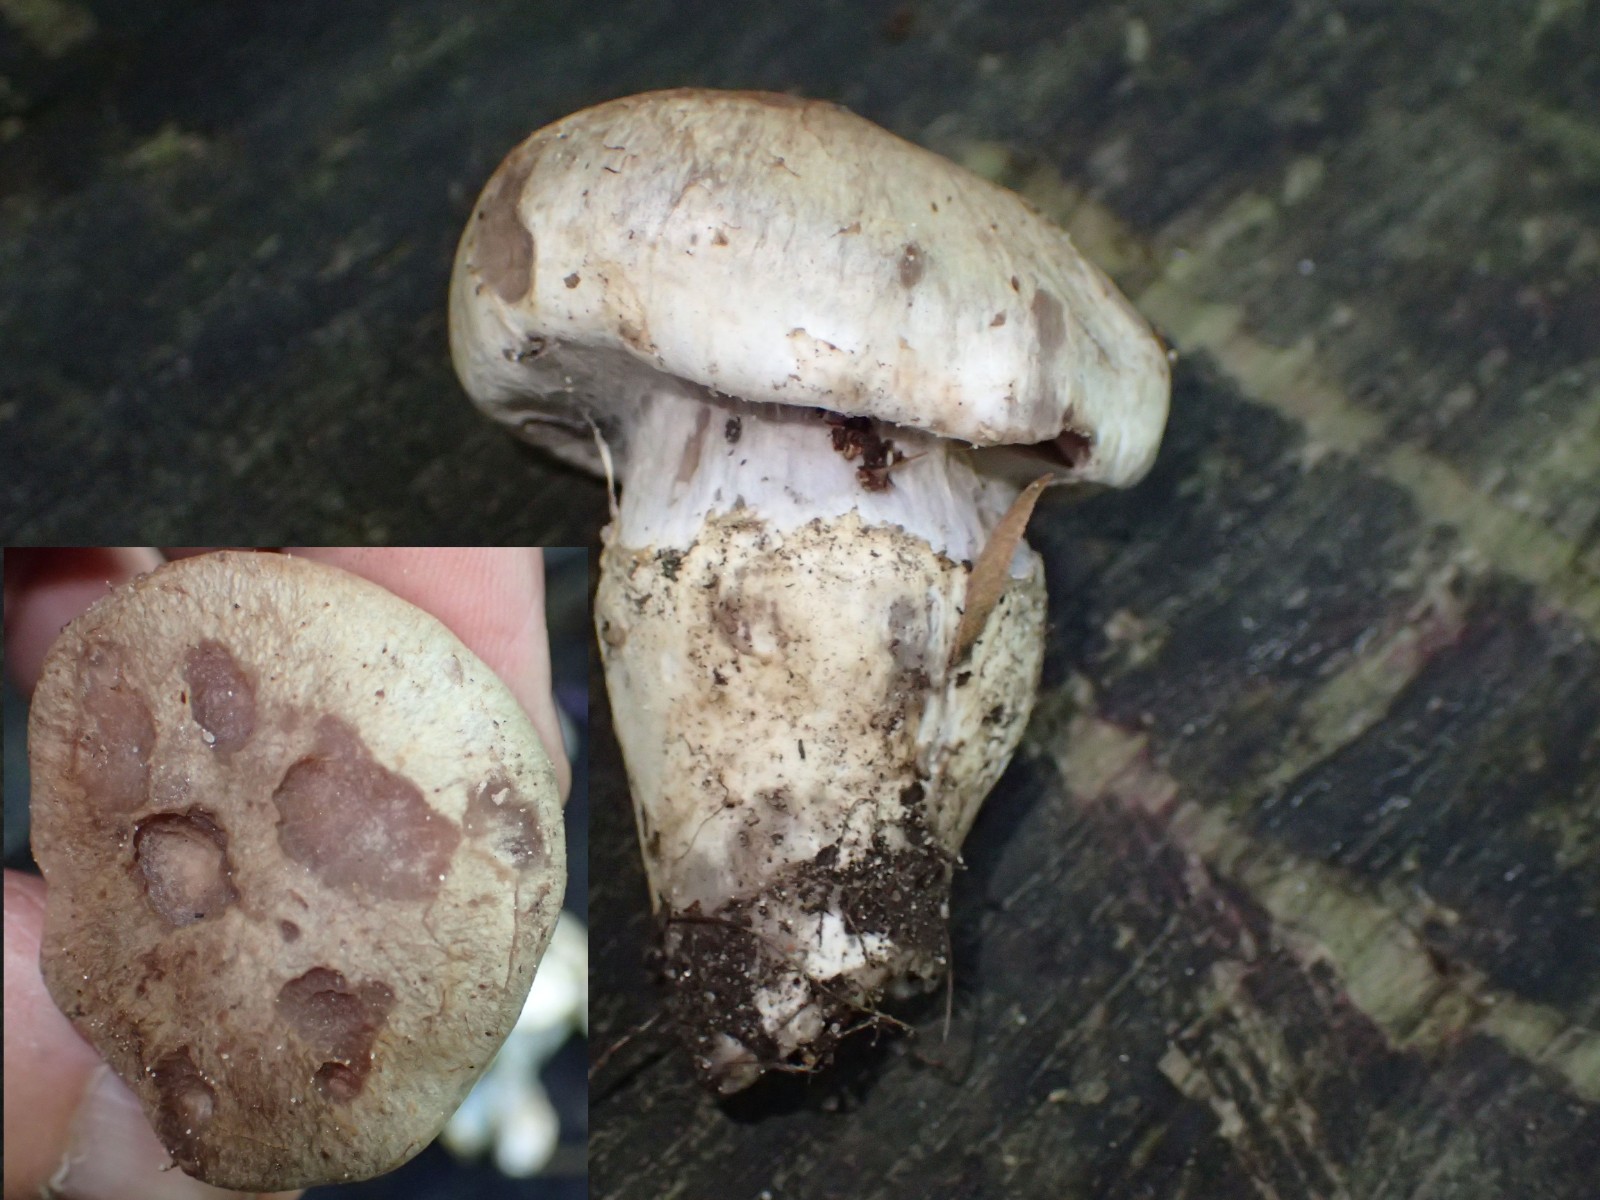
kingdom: Fungi
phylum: Basidiomycota
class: Agaricomycetes
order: Agaricales
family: Cortinariaceae
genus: Cortinarius
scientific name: Cortinarius torvus
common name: champignonagtig slørhat
